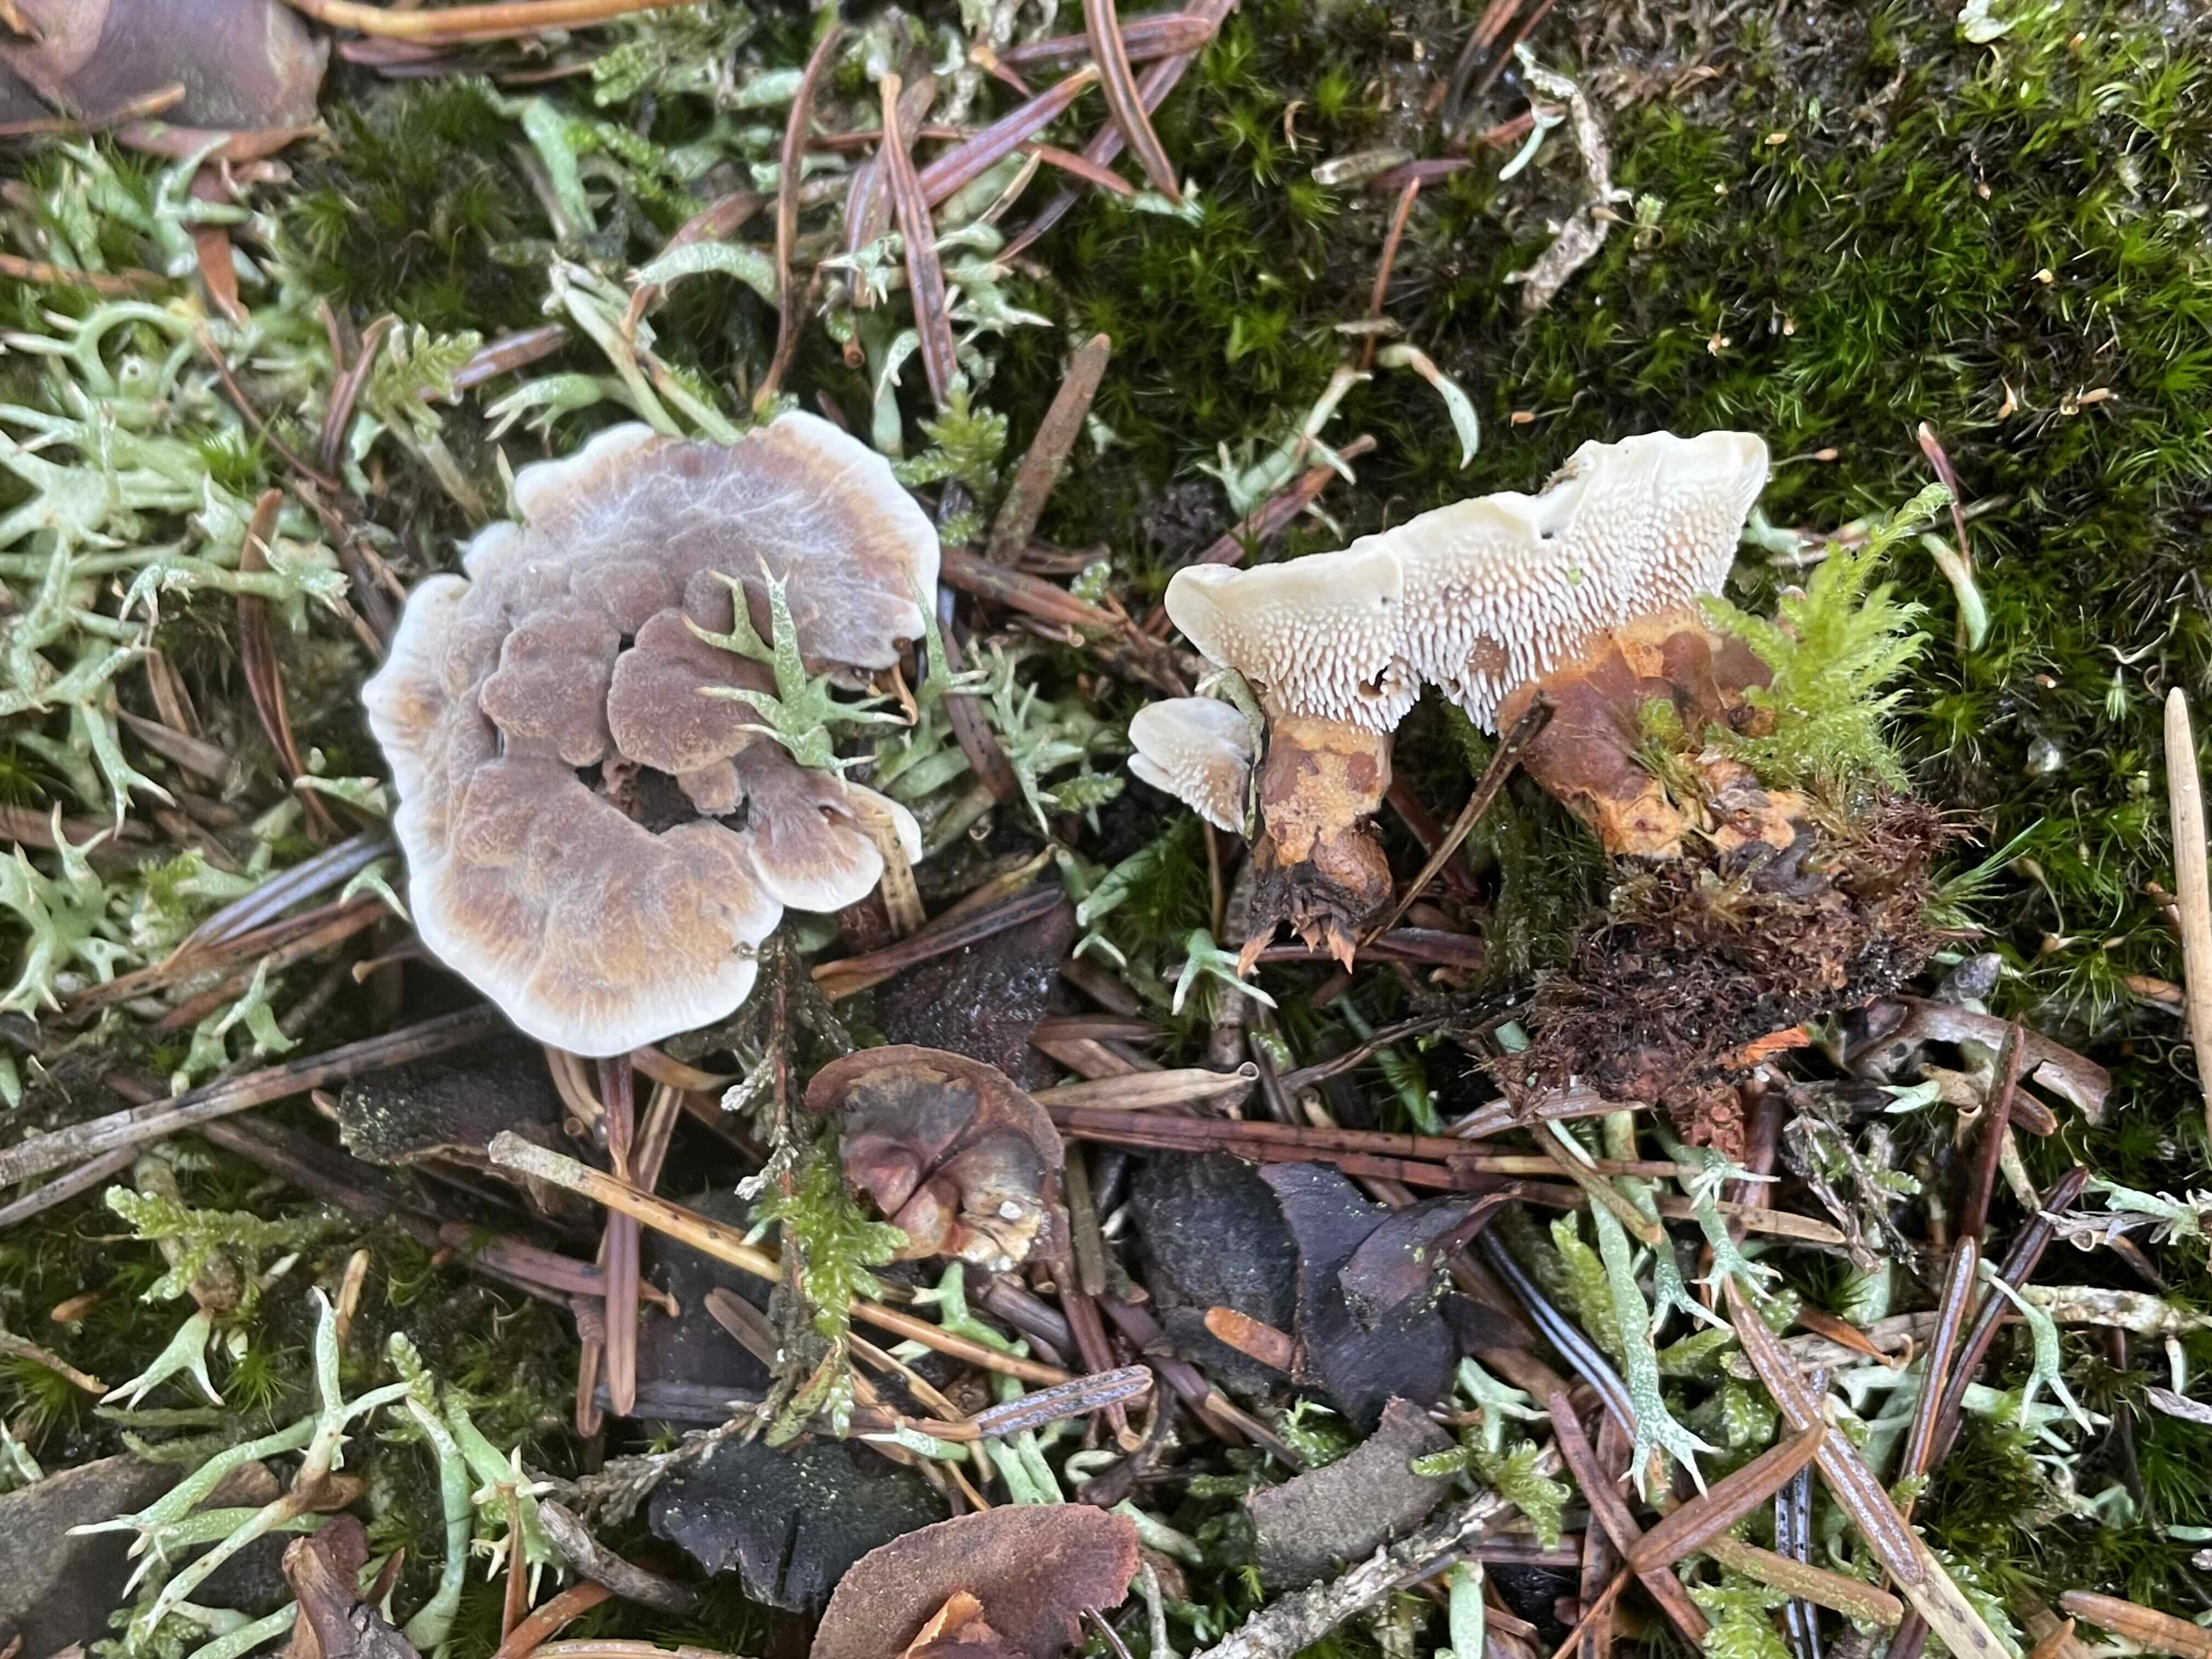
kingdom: Fungi
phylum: Basidiomycota
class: Agaricomycetes
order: Thelephorales
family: Bankeraceae
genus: Hydnellum
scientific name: Hydnellum aurantiacum
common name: orange korkpigsvamp
